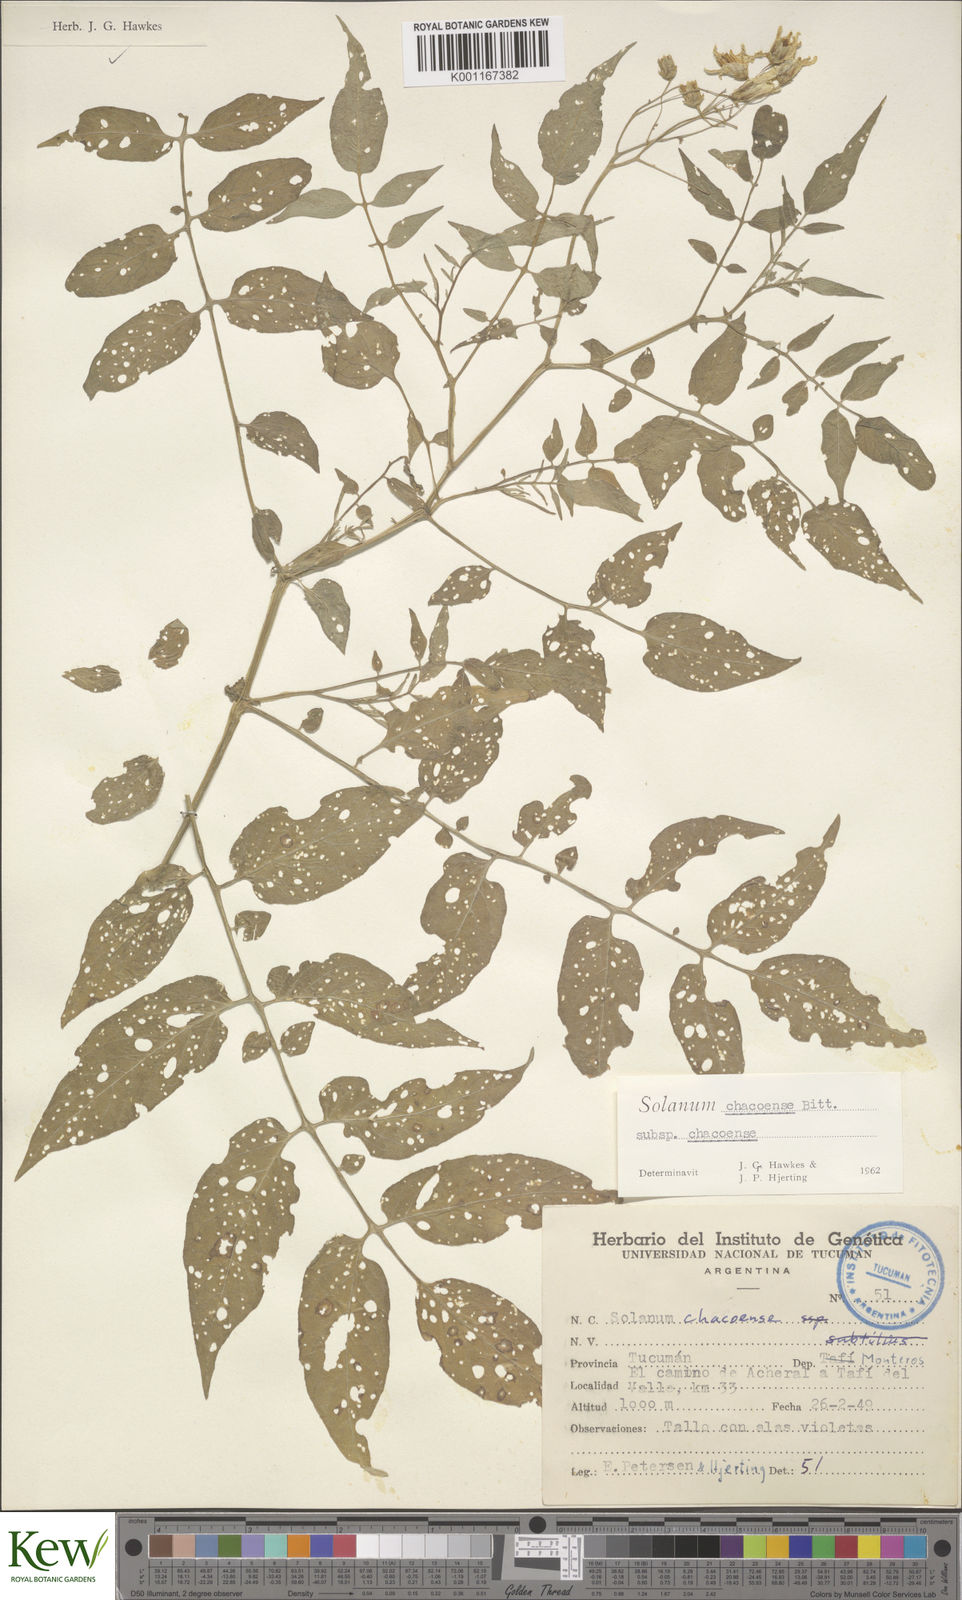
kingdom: Plantae
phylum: Tracheophyta
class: Magnoliopsida
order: Solanales
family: Solanaceae
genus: Solanum
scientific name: Solanum chacoense
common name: Chaco potato
